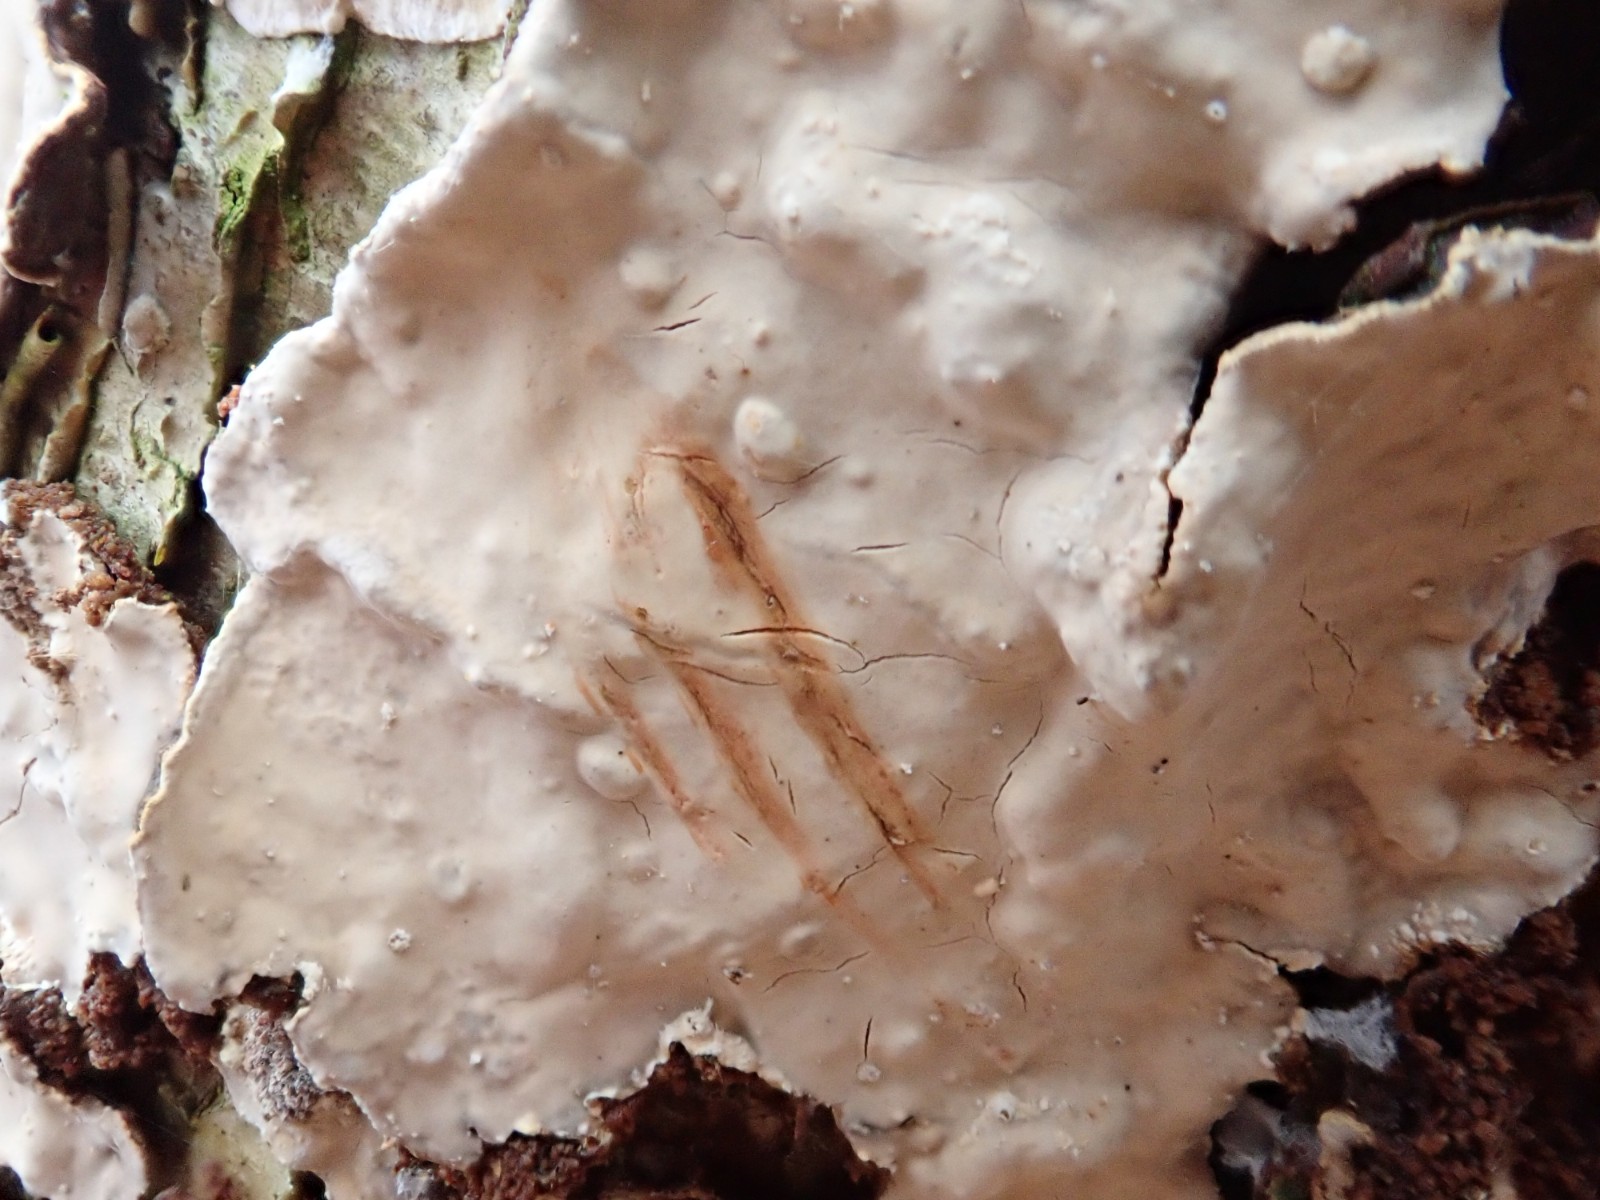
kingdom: Fungi
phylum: Basidiomycota
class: Agaricomycetes
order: Russulales
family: Stereaceae
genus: Stereum
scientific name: Stereum rugosum
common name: rynket lædersvamp
